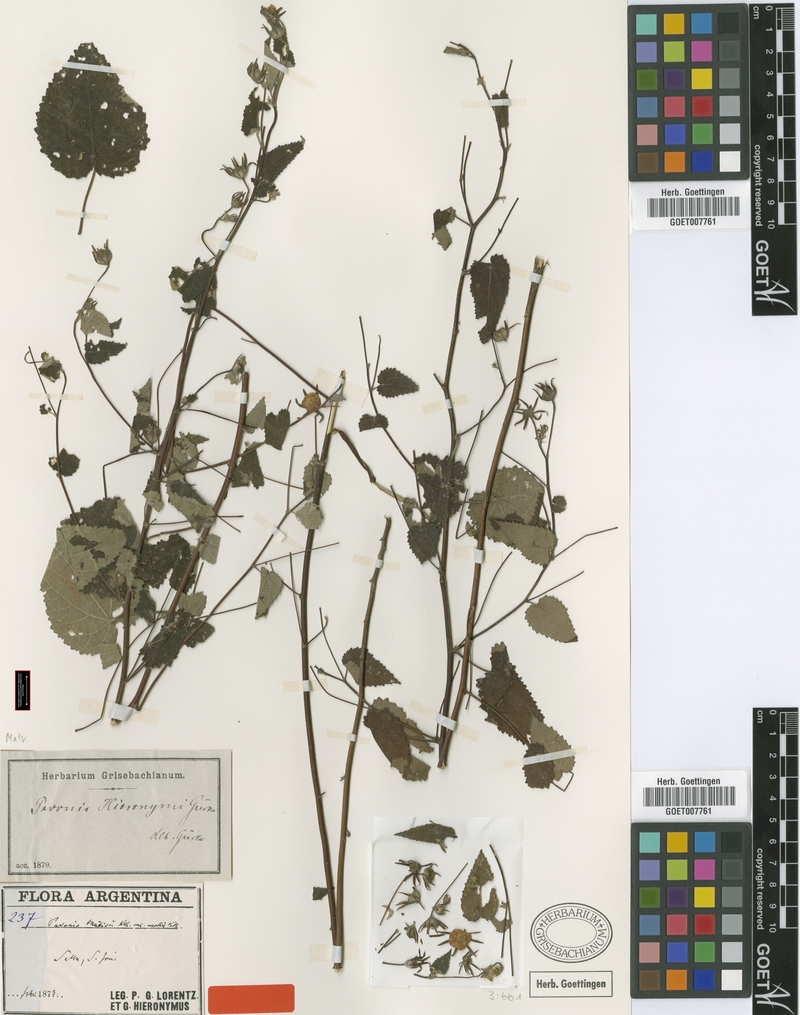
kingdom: Plantae
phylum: Tracheophyta
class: Magnoliopsida
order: Malvales
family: Malvaceae
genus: Pavonia
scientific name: Pavonia hieronymi
